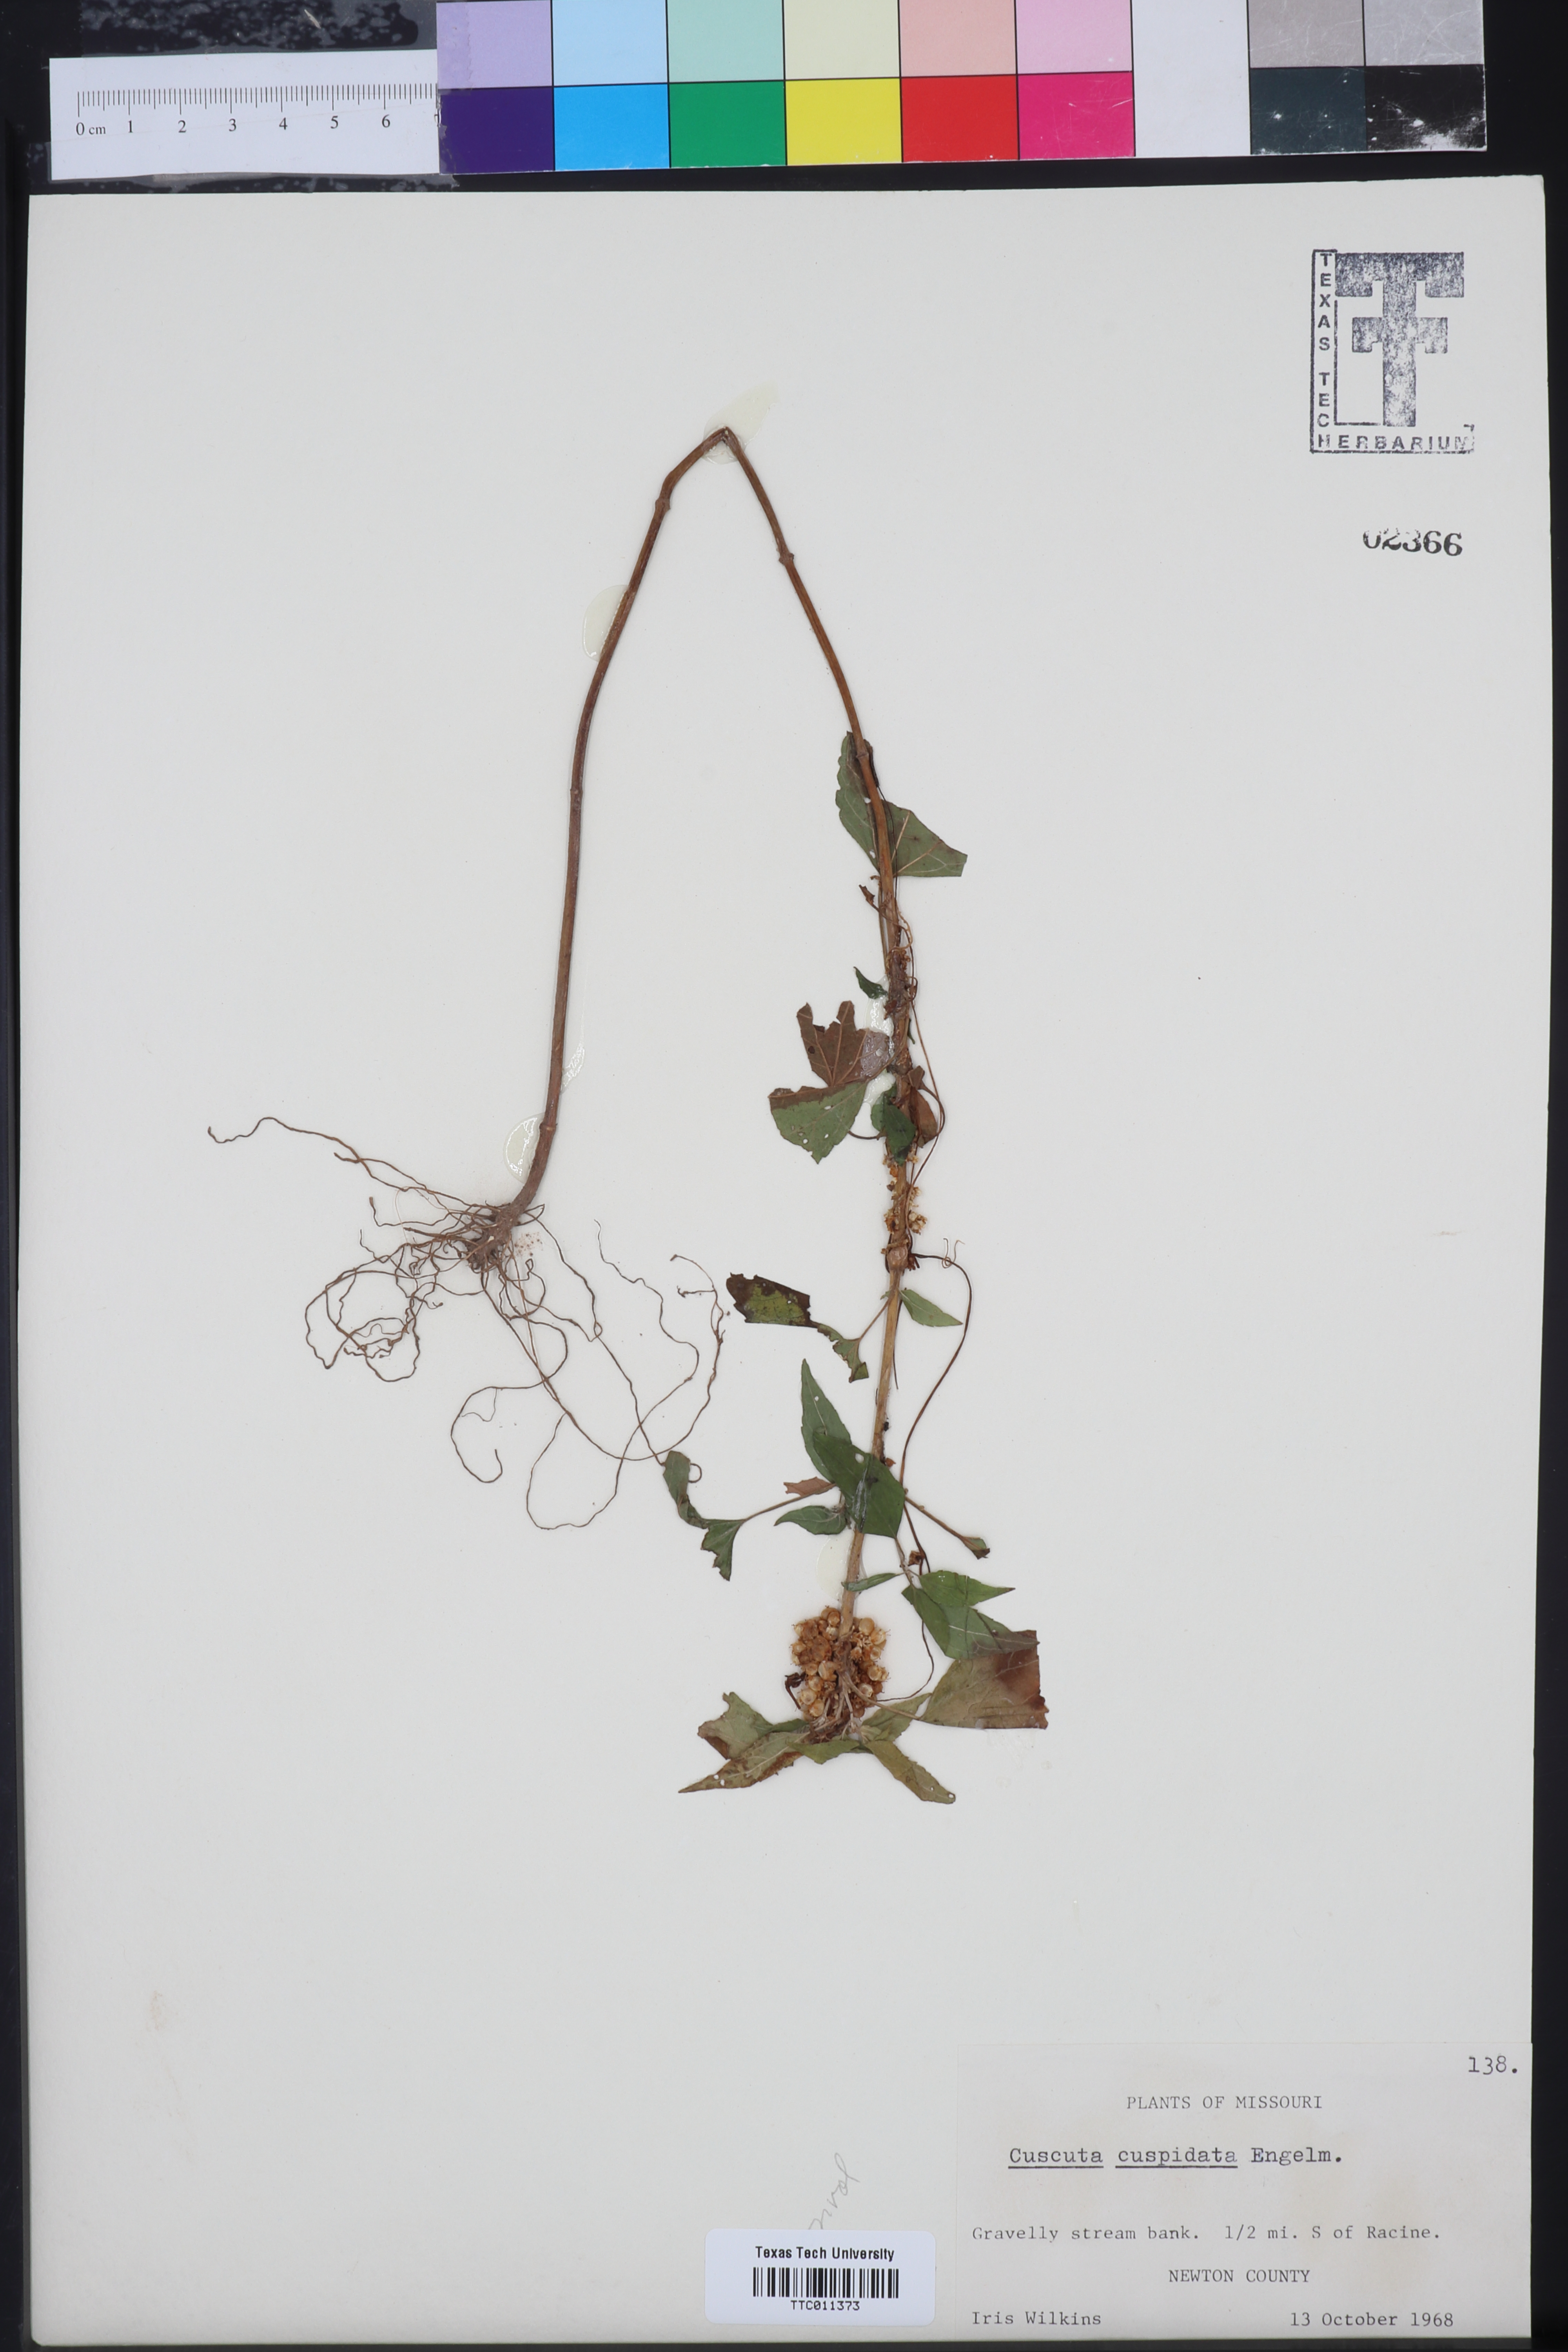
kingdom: Plantae
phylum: Tracheophyta
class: Magnoliopsida
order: Solanales
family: Convolvulaceae
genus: Cuscuta
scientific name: Cuscuta cuspidata
